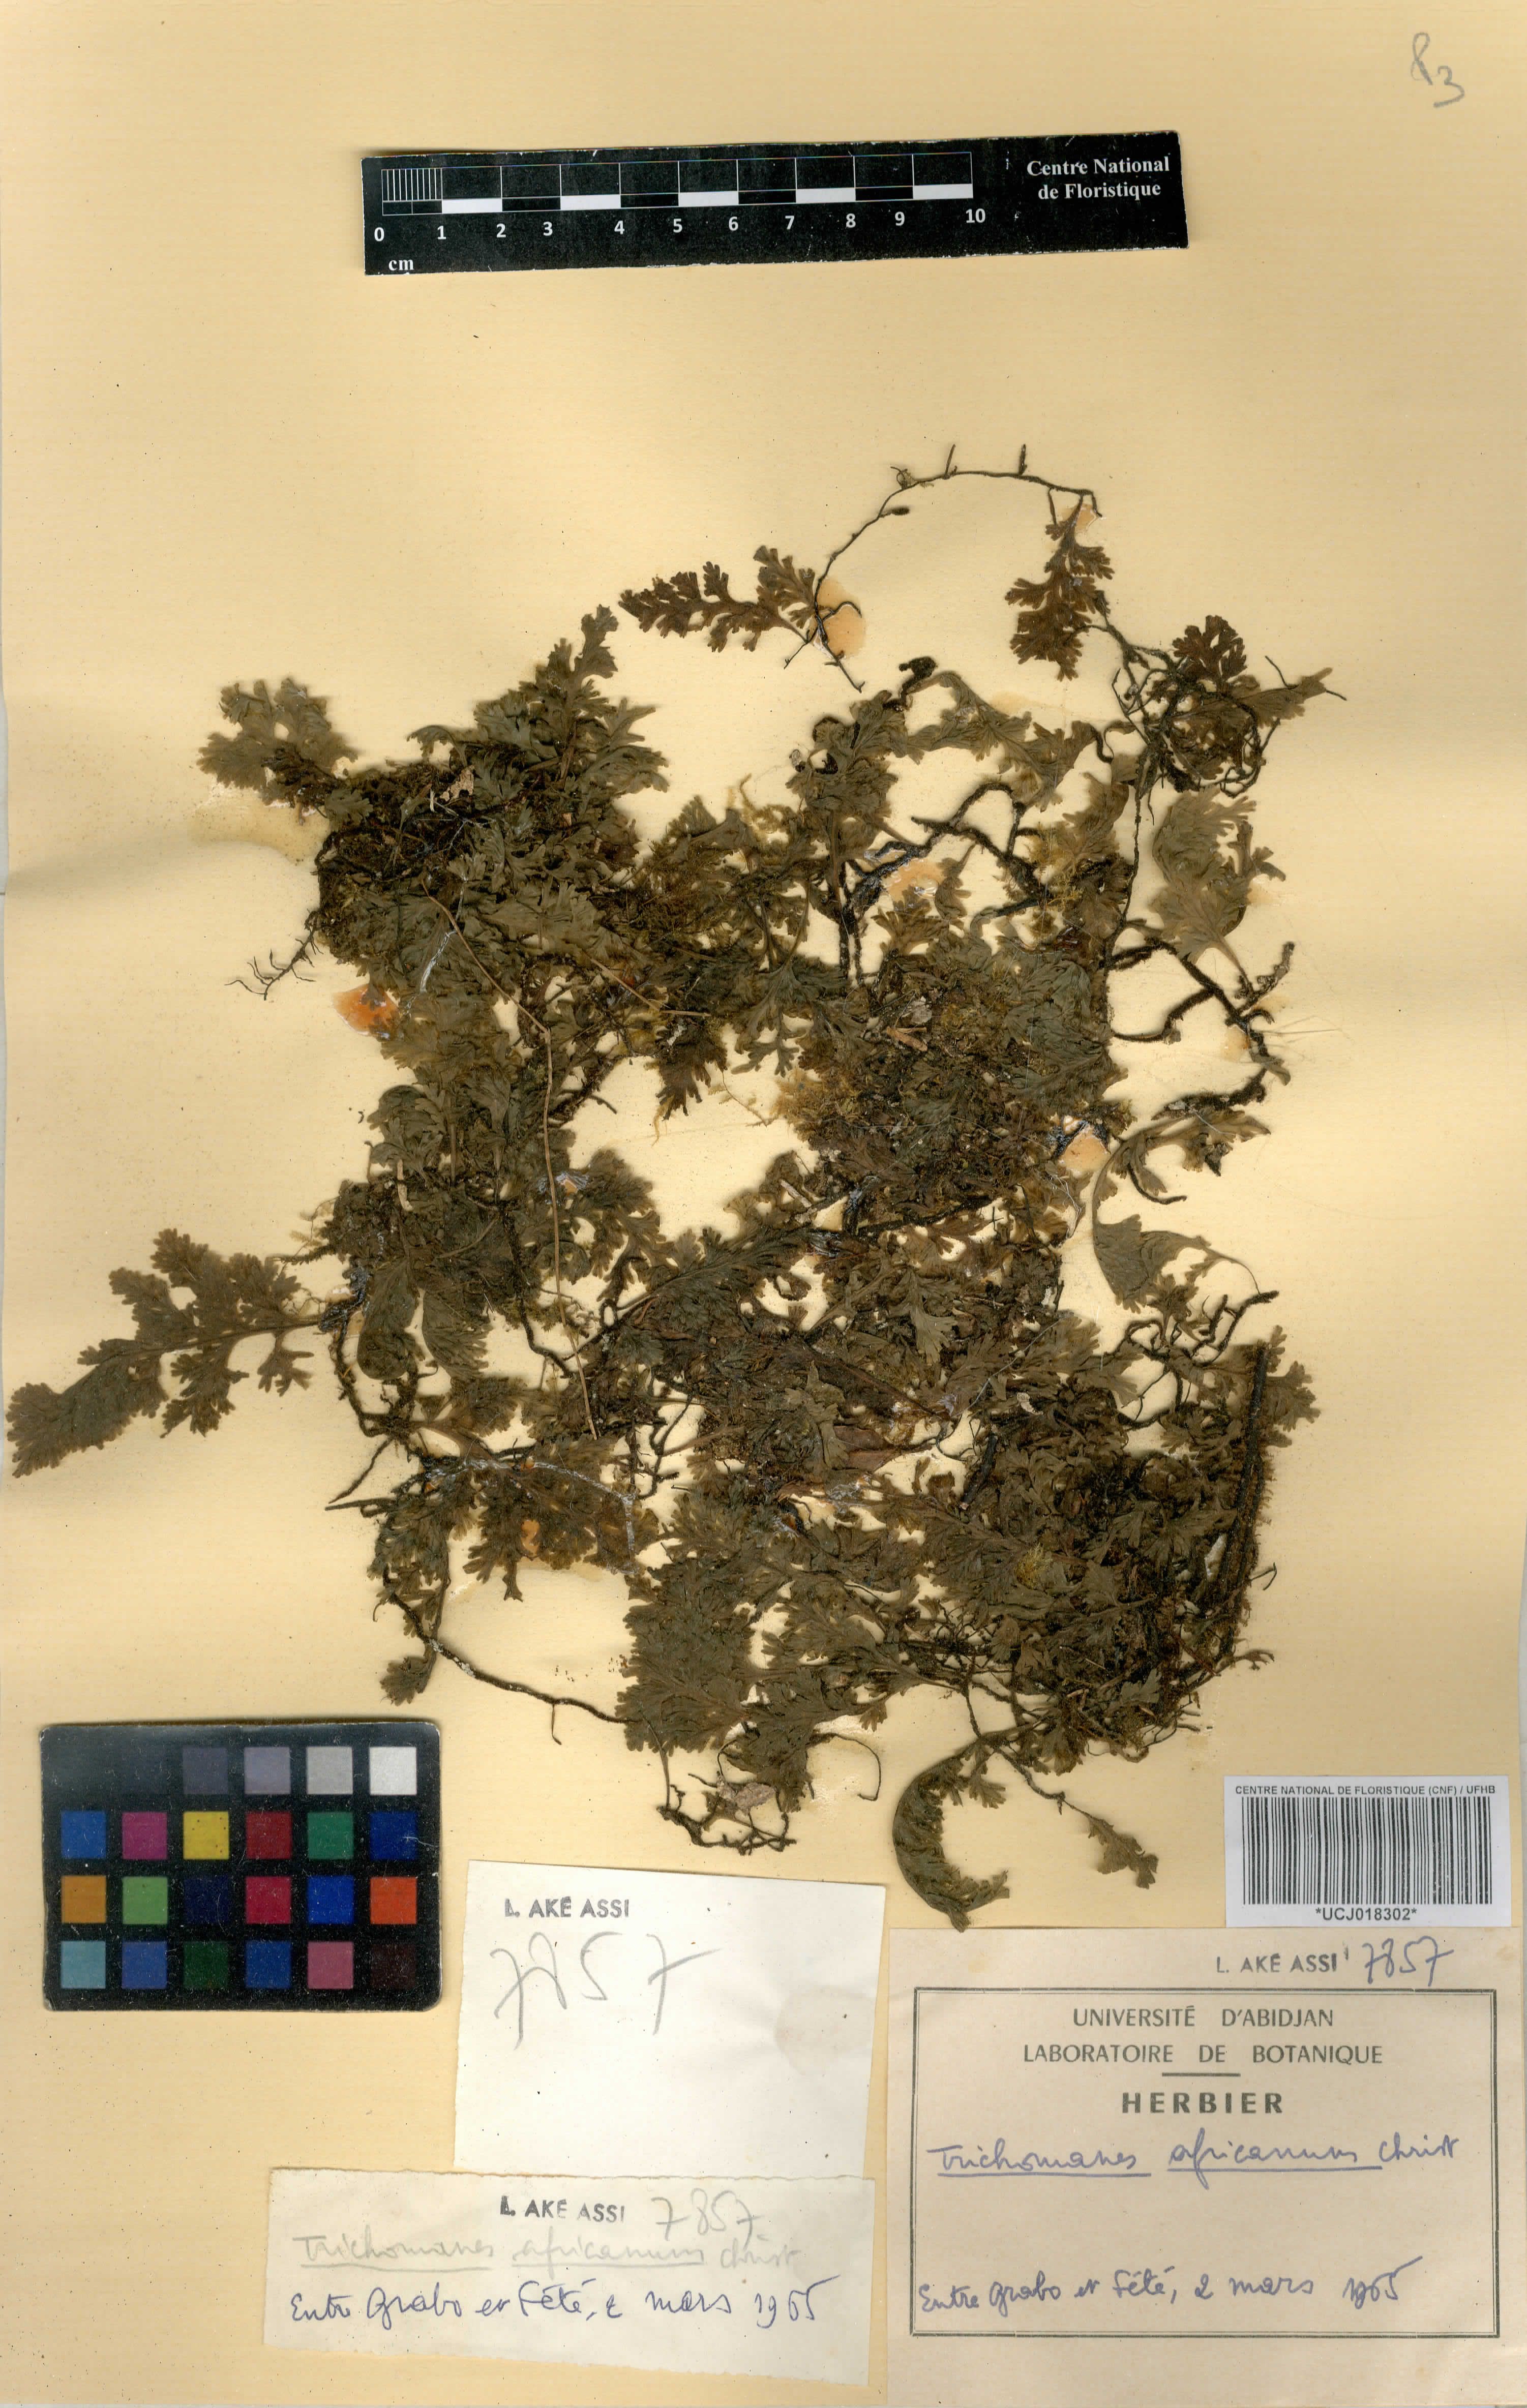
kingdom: Plantae
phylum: Tracheophyta
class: Polypodiopsida
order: Hymenophyllales
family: Hymenophyllaceae
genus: Crepidomanes
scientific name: Crepidomanes africanum
